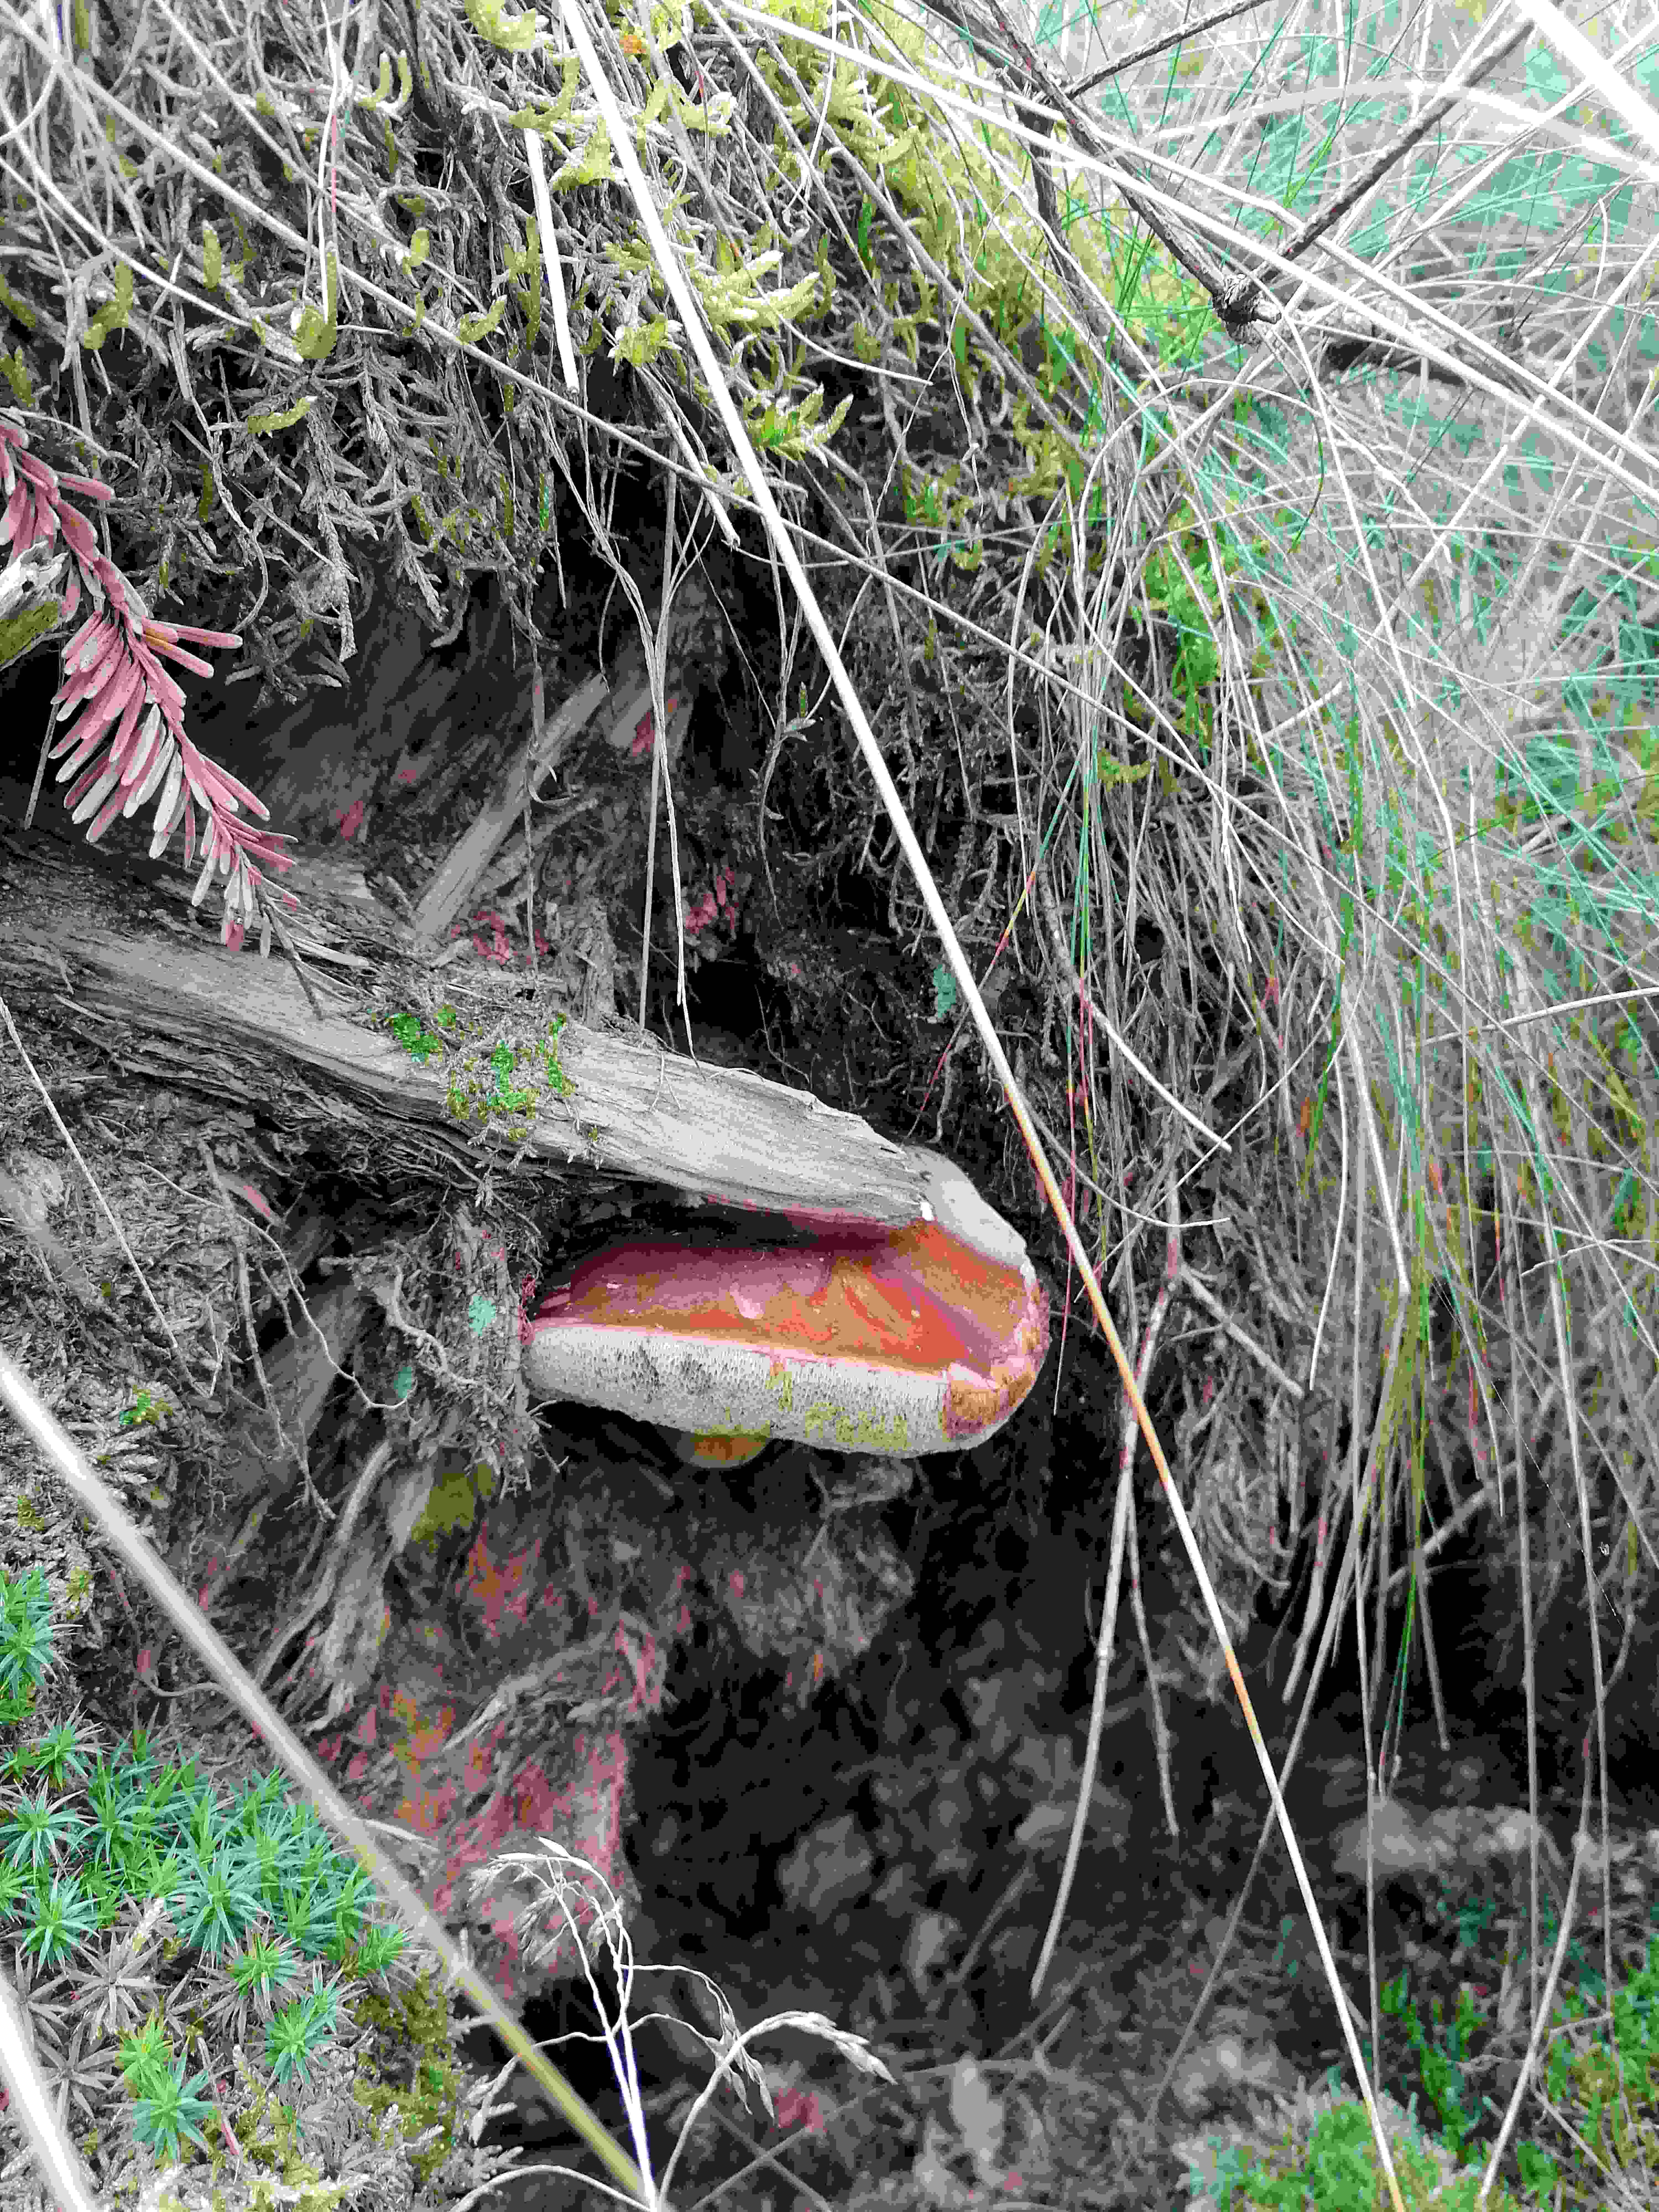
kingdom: Fungi
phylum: Basidiomycota
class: Agaricomycetes
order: Boletales
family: Boletaceae
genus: Imleria
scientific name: Imleria badia
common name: brunstokket rørhat
